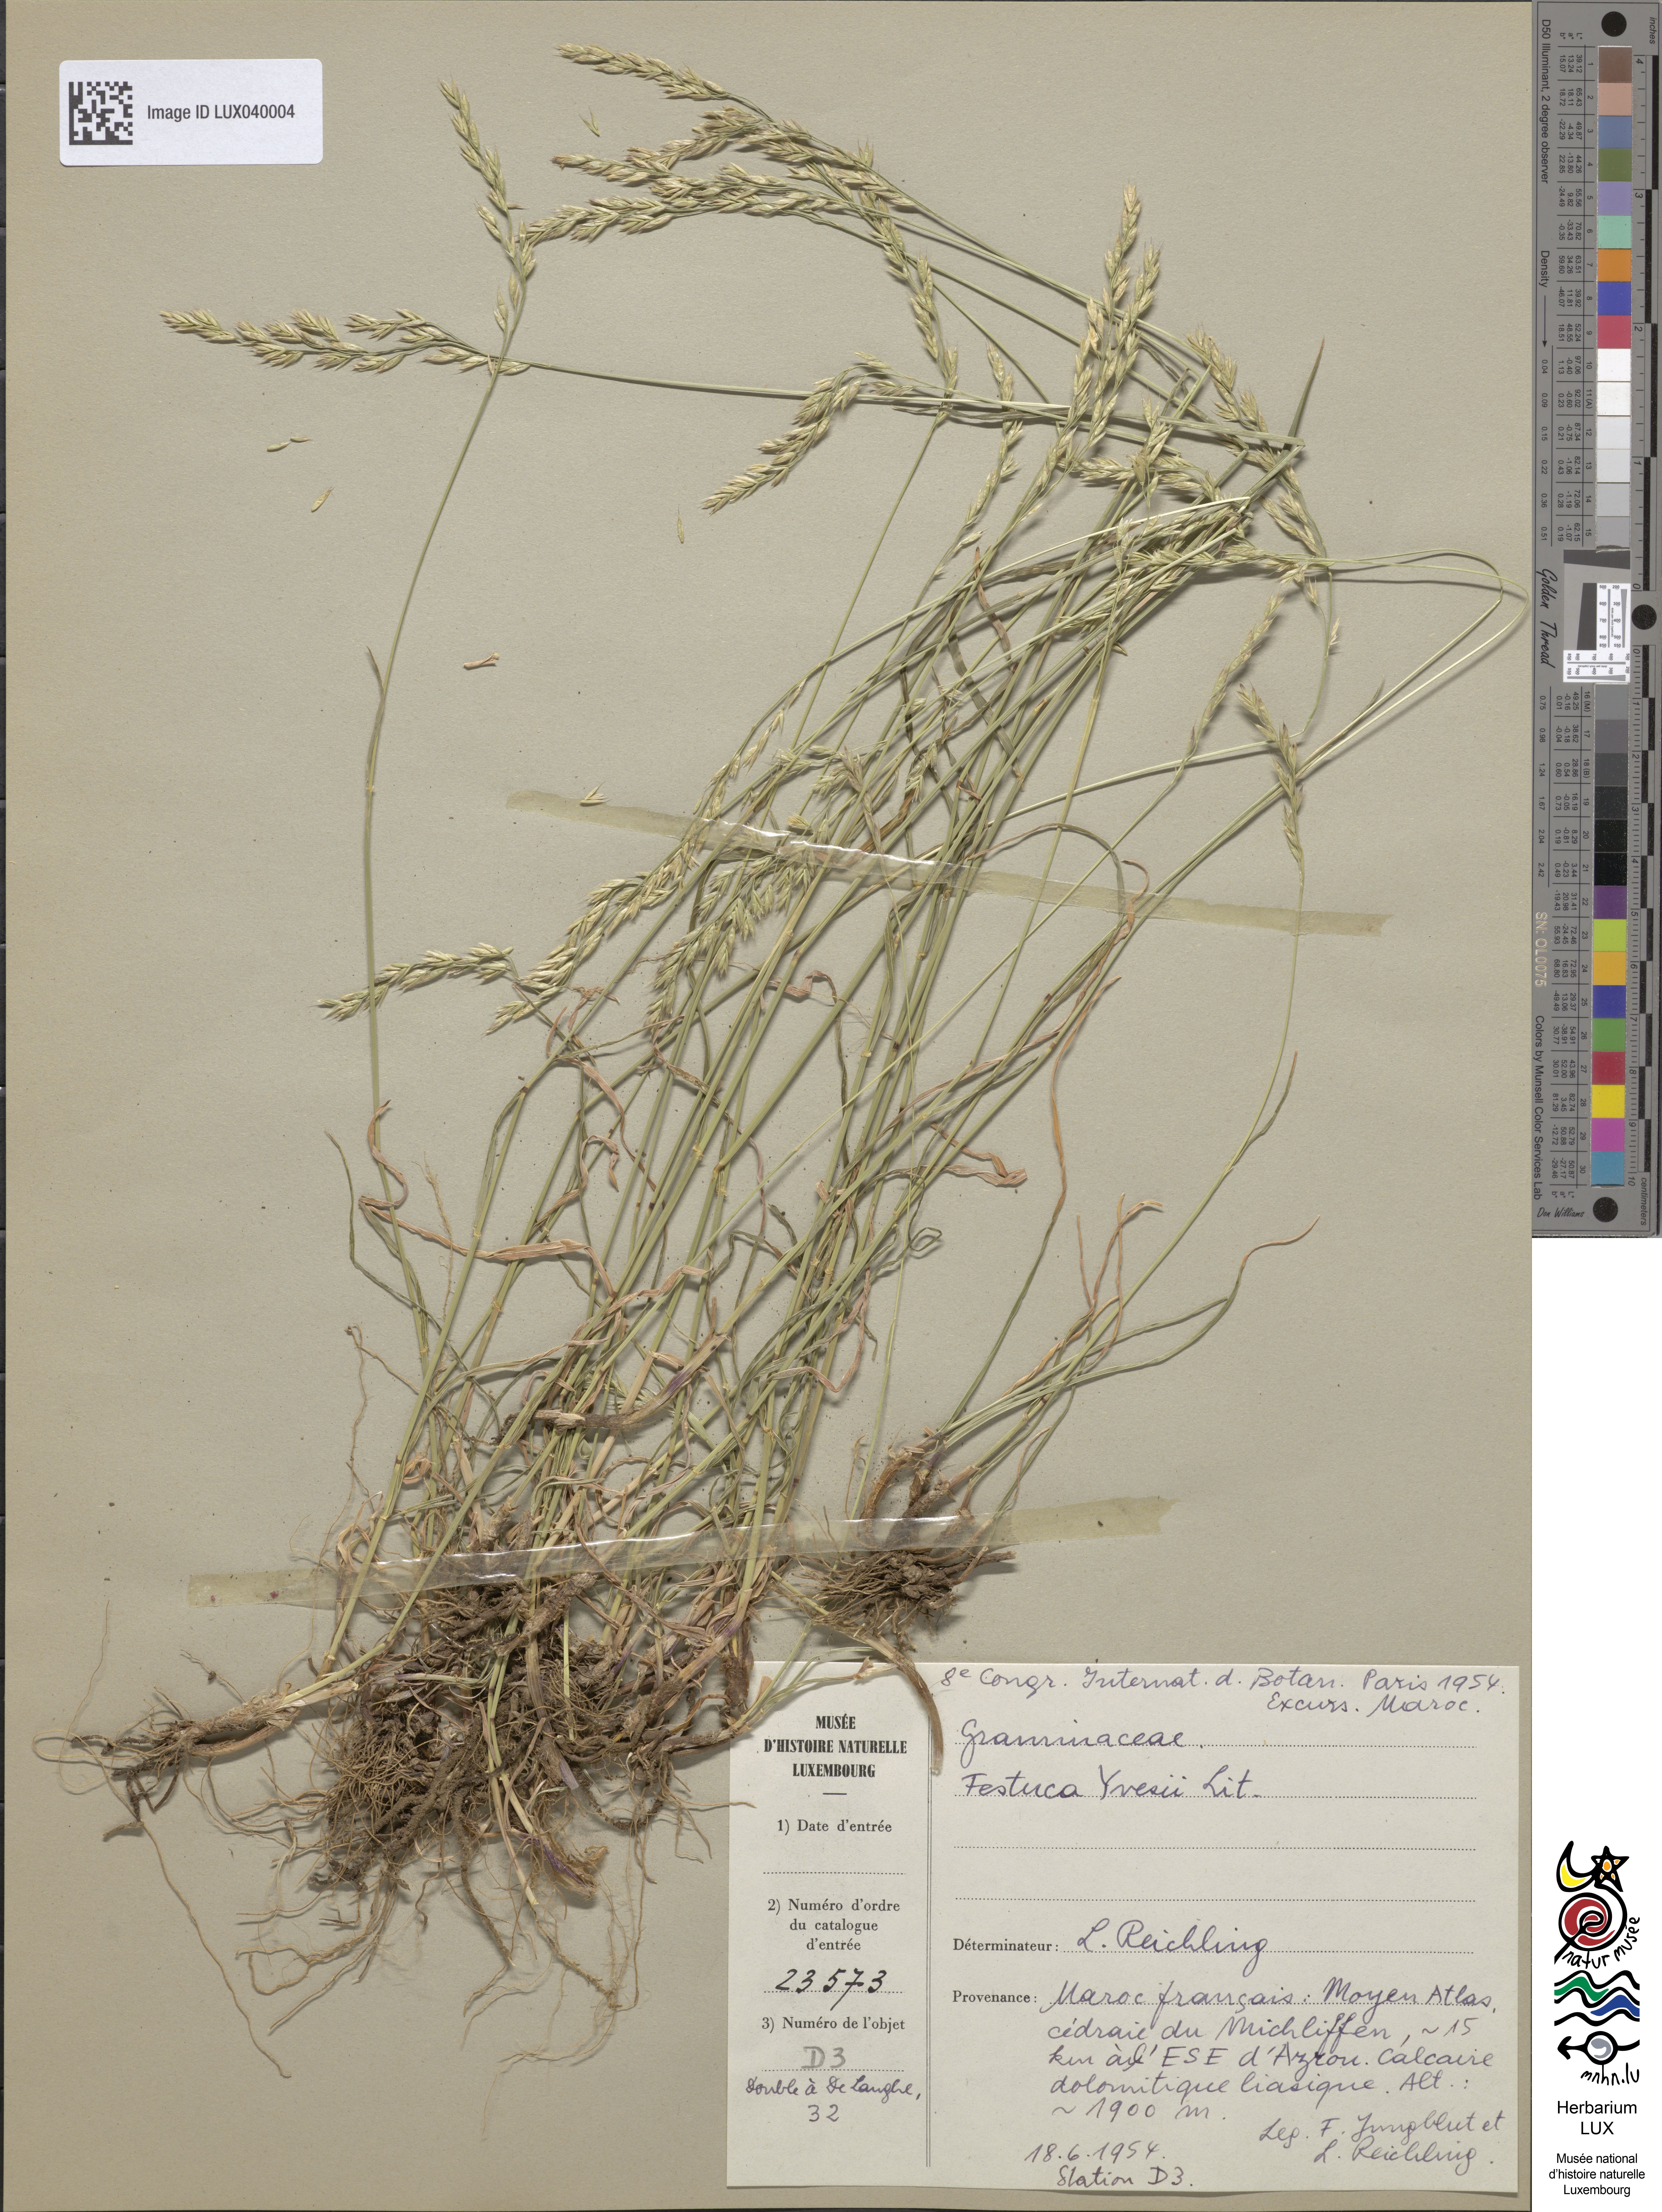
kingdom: Plantae
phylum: Tracheophyta
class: Liliopsida
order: Poales
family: Poaceae
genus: Lolium
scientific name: Lolium font-queri
